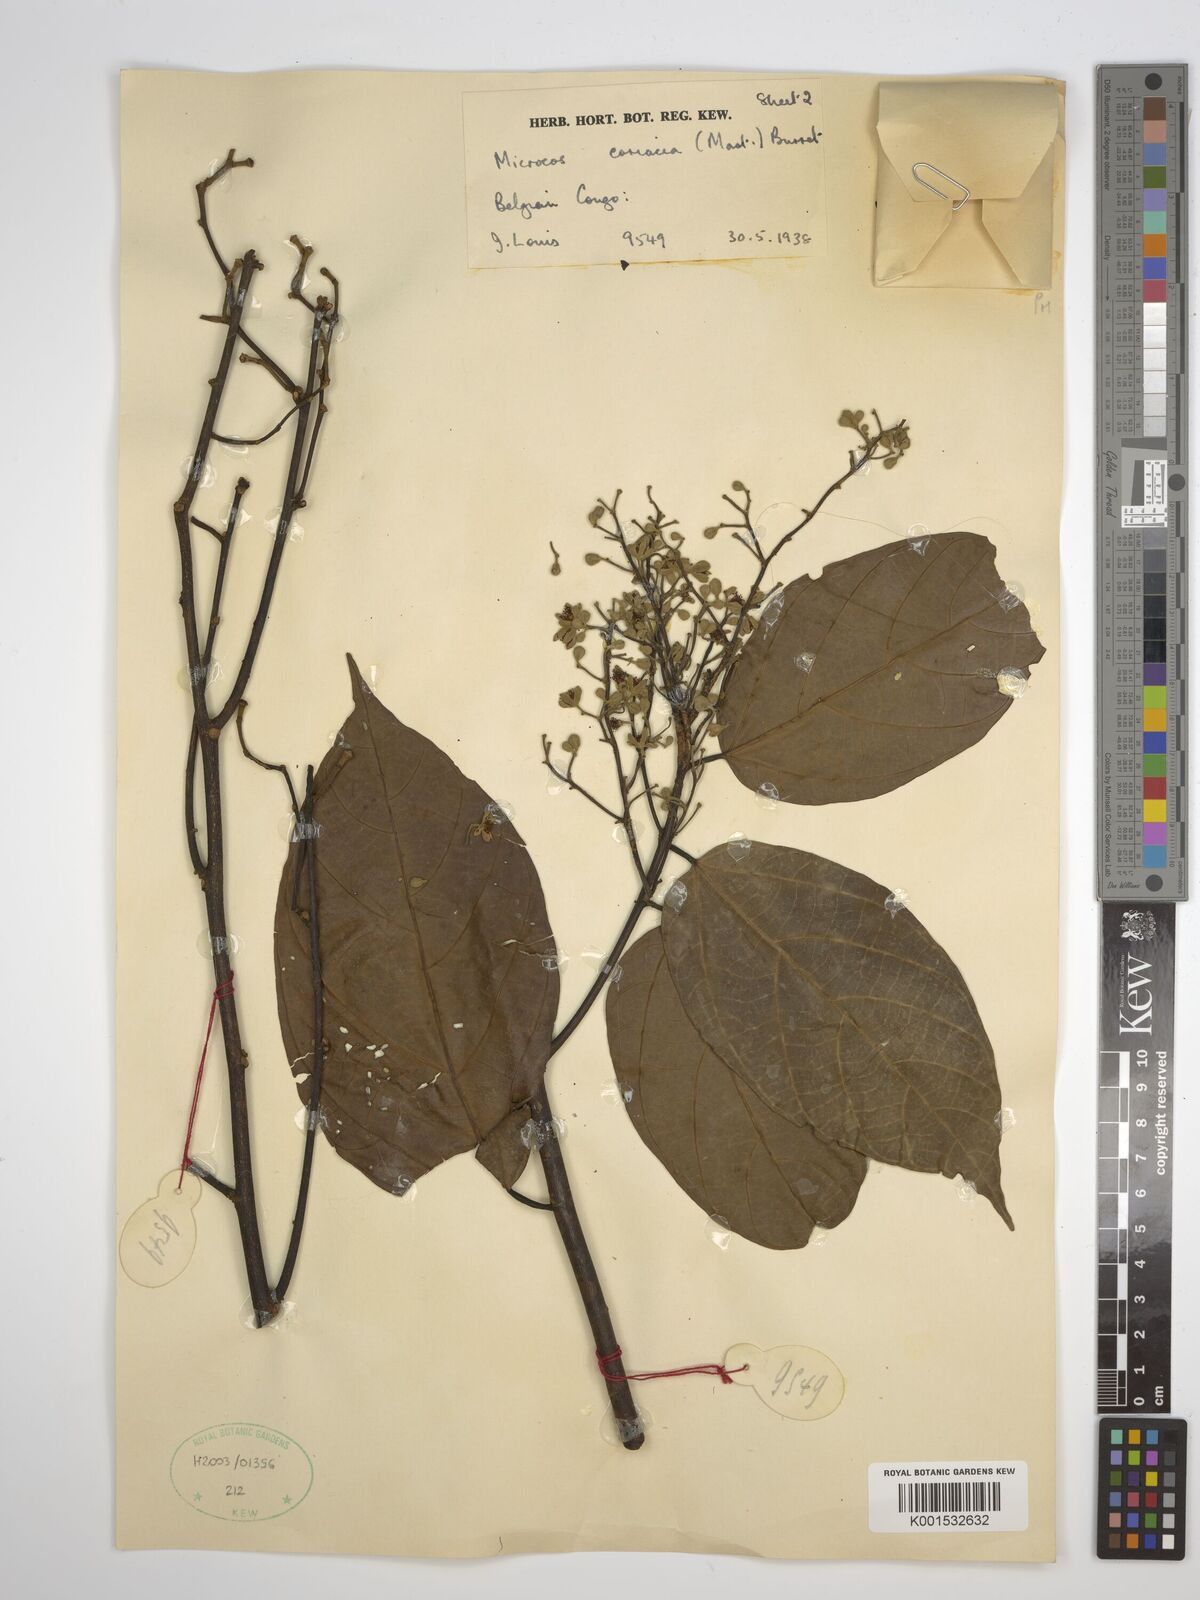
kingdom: Plantae
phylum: Tracheophyta
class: Magnoliopsida
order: Malvales
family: Malvaceae
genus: Microcos
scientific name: Microcos coriacea
